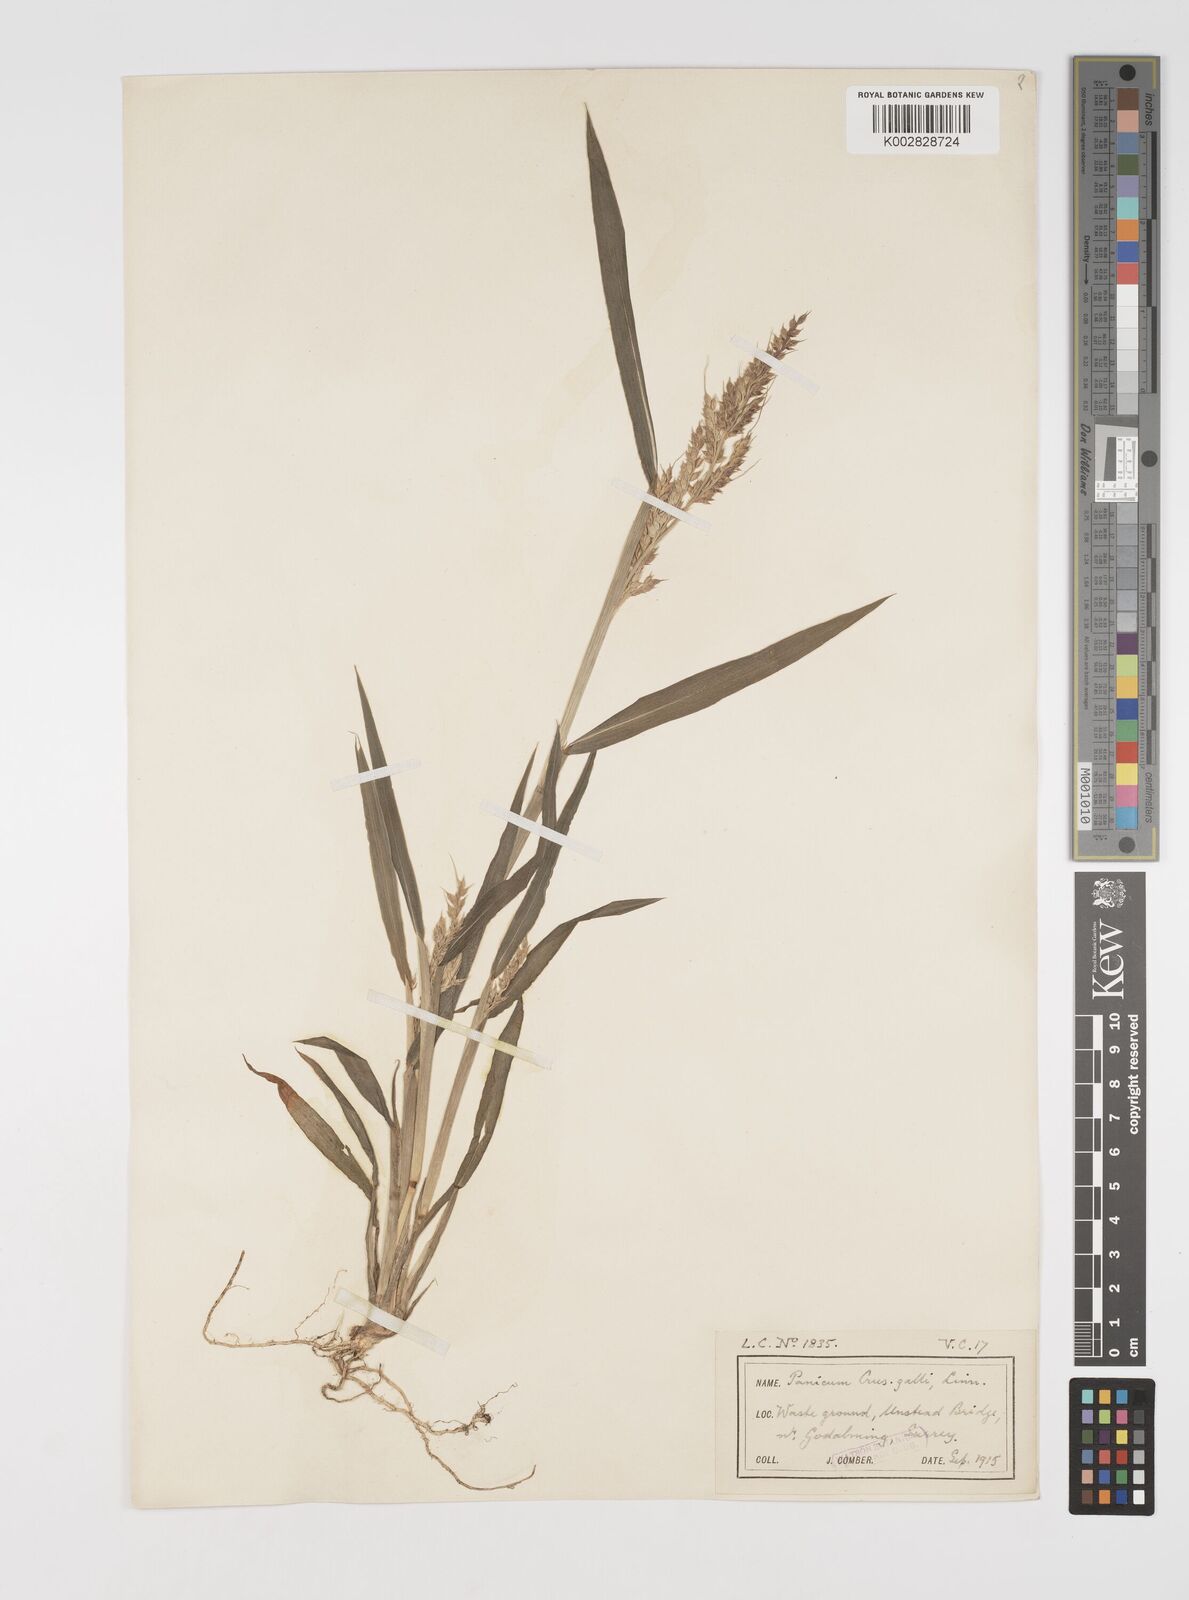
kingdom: Plantae
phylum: Tracheophyta
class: Liliopsida
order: Poales
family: Poaceae
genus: Echinochloa
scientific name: Echinochloa crus-galli
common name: Cockspur
